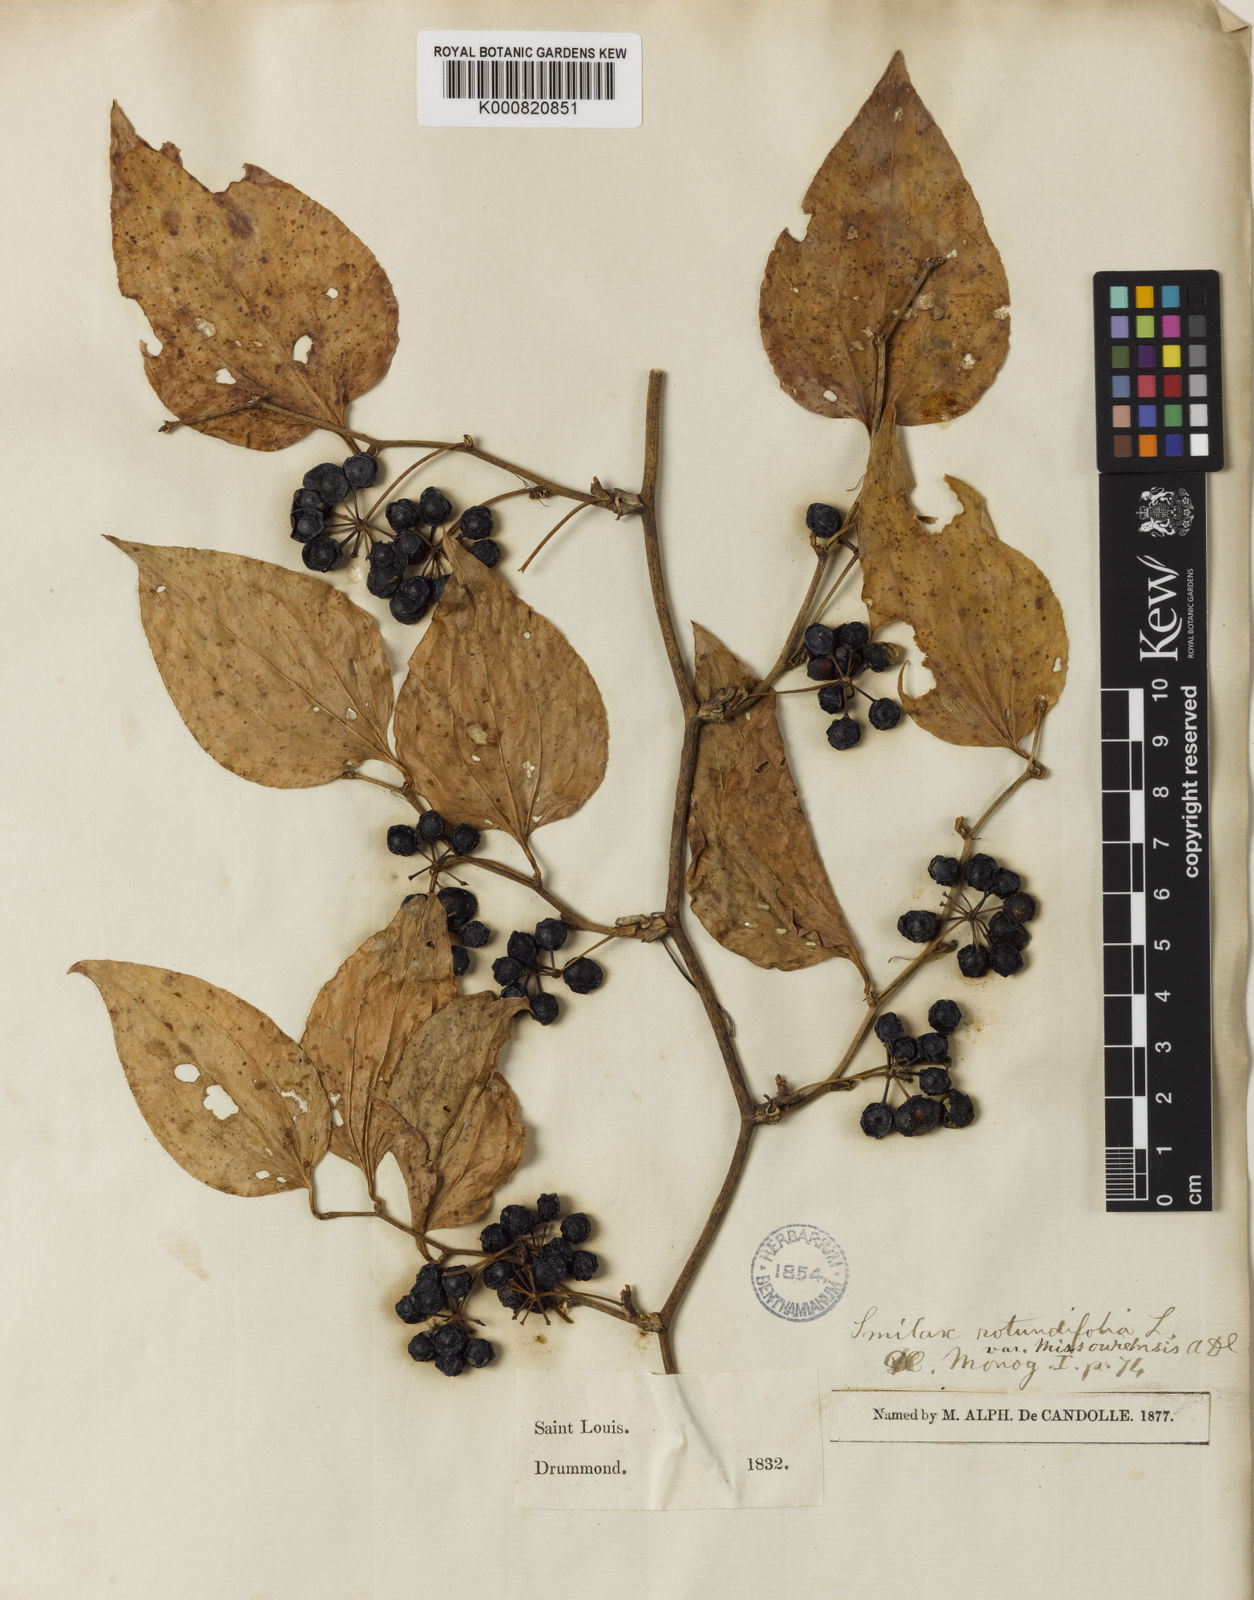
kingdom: Plantae
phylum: Tracheophyta
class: Liliopsida
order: Liliales
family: Smilacaceae
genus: Smilax
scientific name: Smilax rotundifolia
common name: Bullbriar
